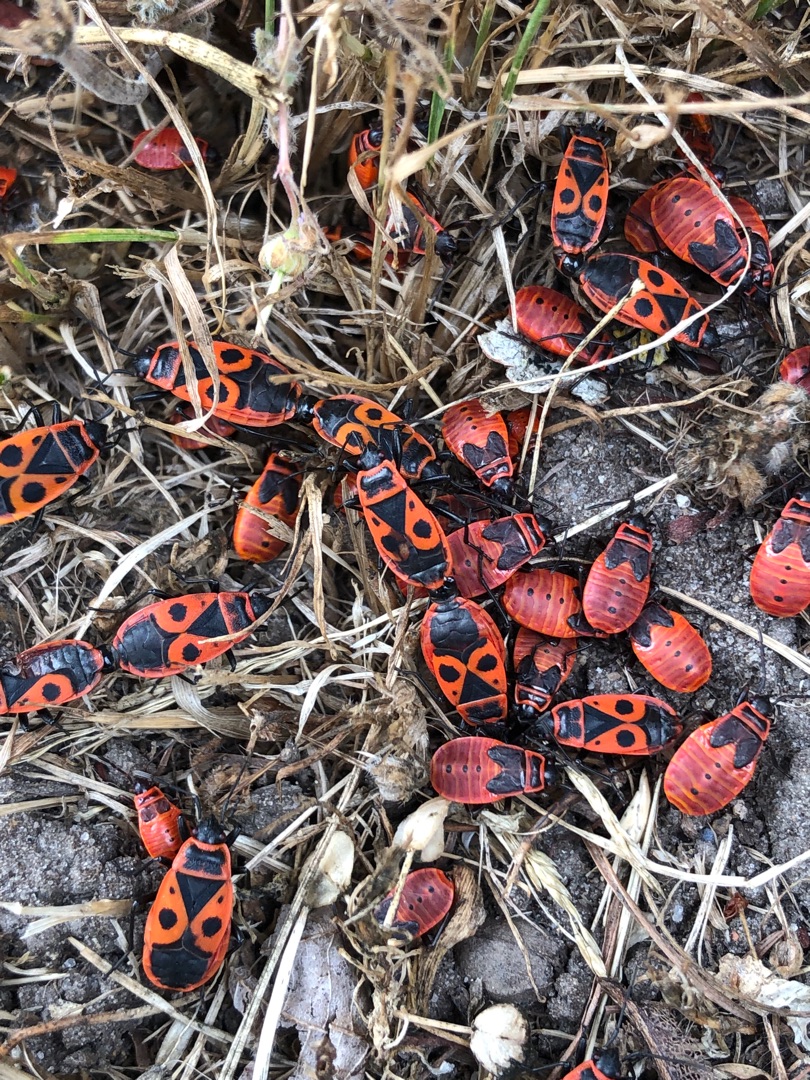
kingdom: Animalia
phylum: Arthropoda
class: Insecta
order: Hemiptera
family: Pyrrhocoridae
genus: Pyrrhocoris
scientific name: Pyrrhocoris apterus
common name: Ildtæge
